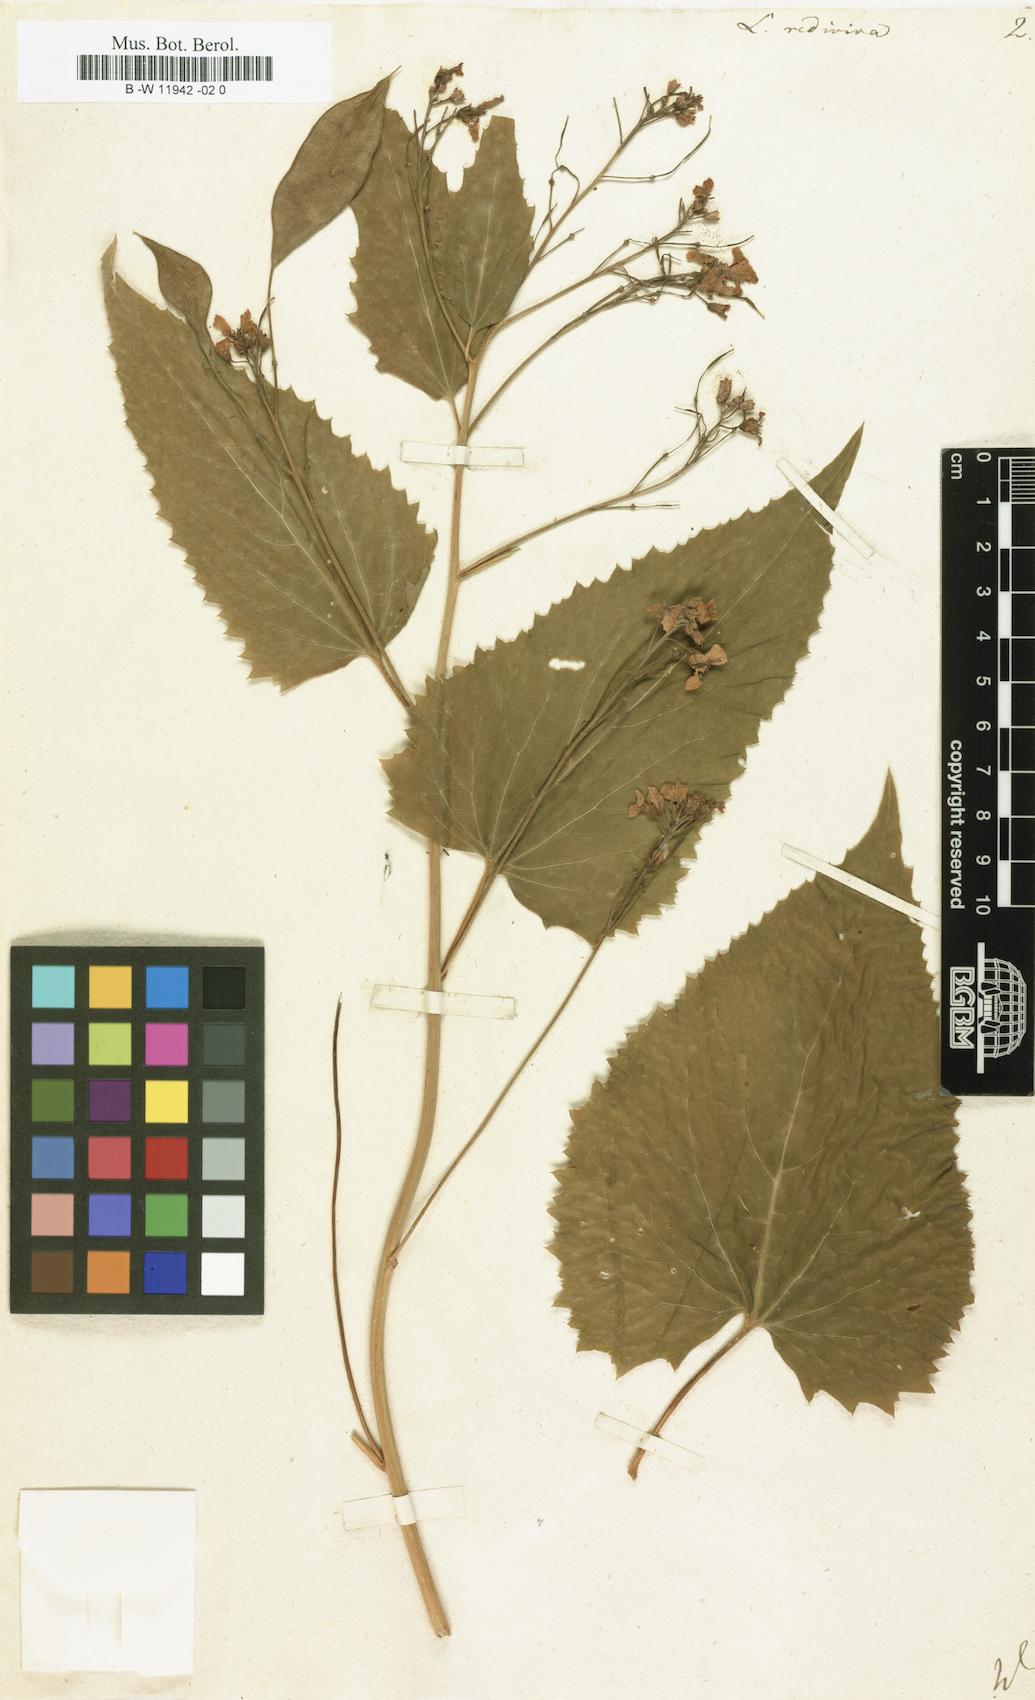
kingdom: Plantae
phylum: Tracheophyta
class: Magnoliopsida
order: Brassicales
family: Brassicaceae
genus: Lunaria
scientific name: Lunaria rediviva
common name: Perennial honesty
